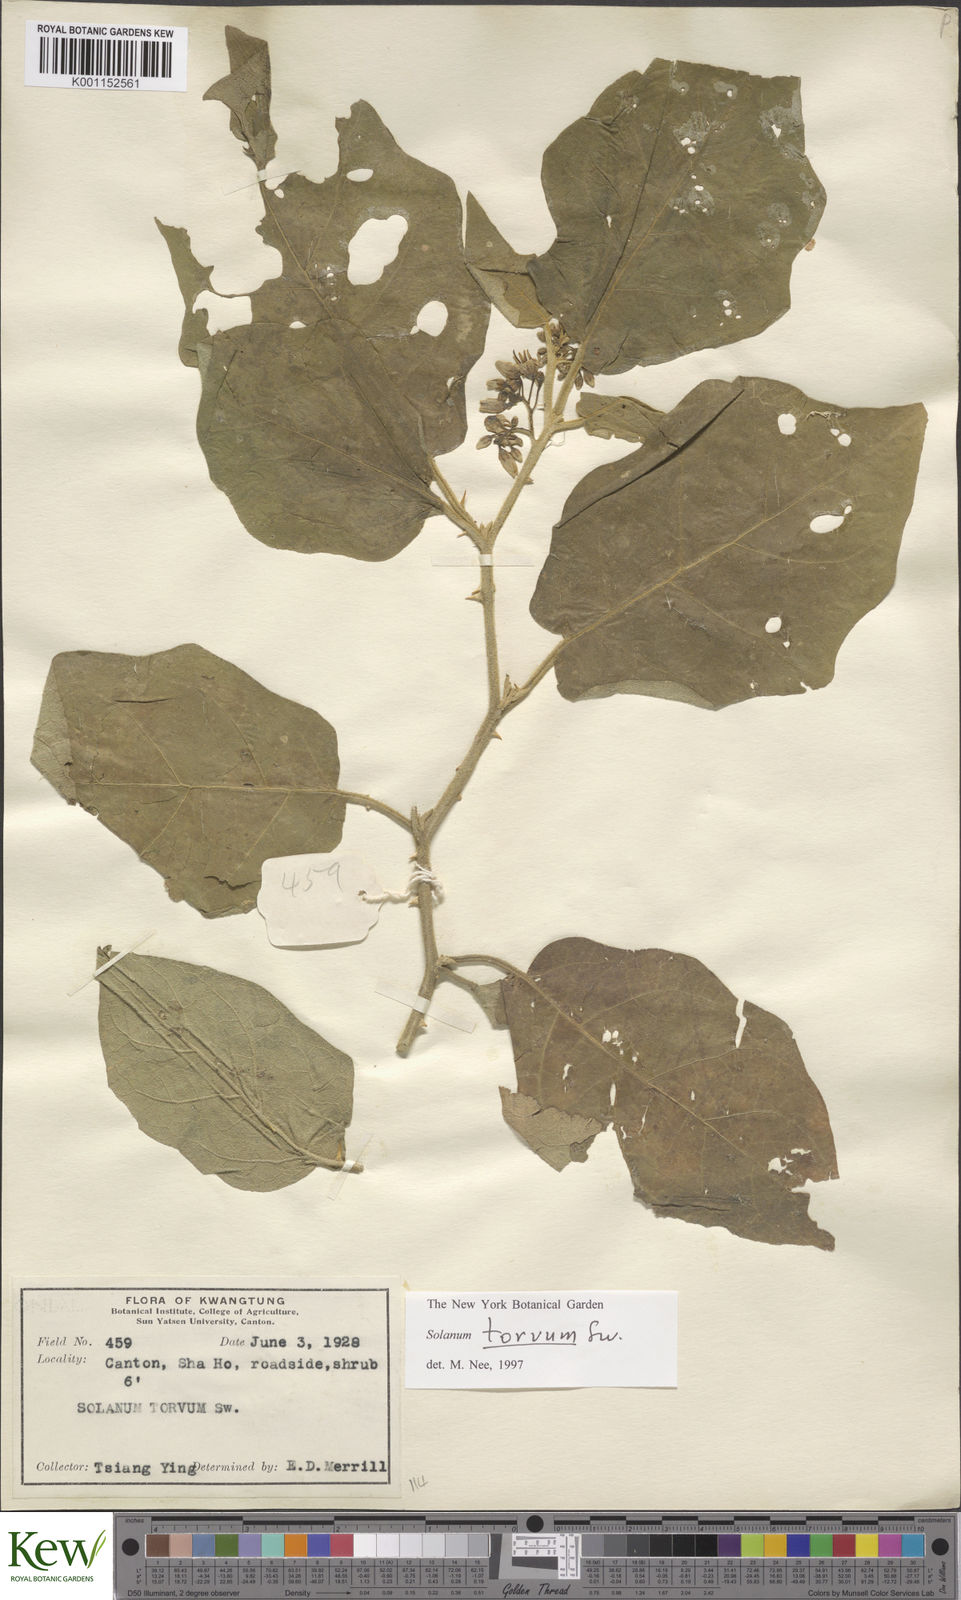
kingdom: Plantae
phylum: Tracheophyta
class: Magnoliopsida
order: Solanales
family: Solanaceae
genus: Solanum
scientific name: Solanum torvum
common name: Turkey berry
